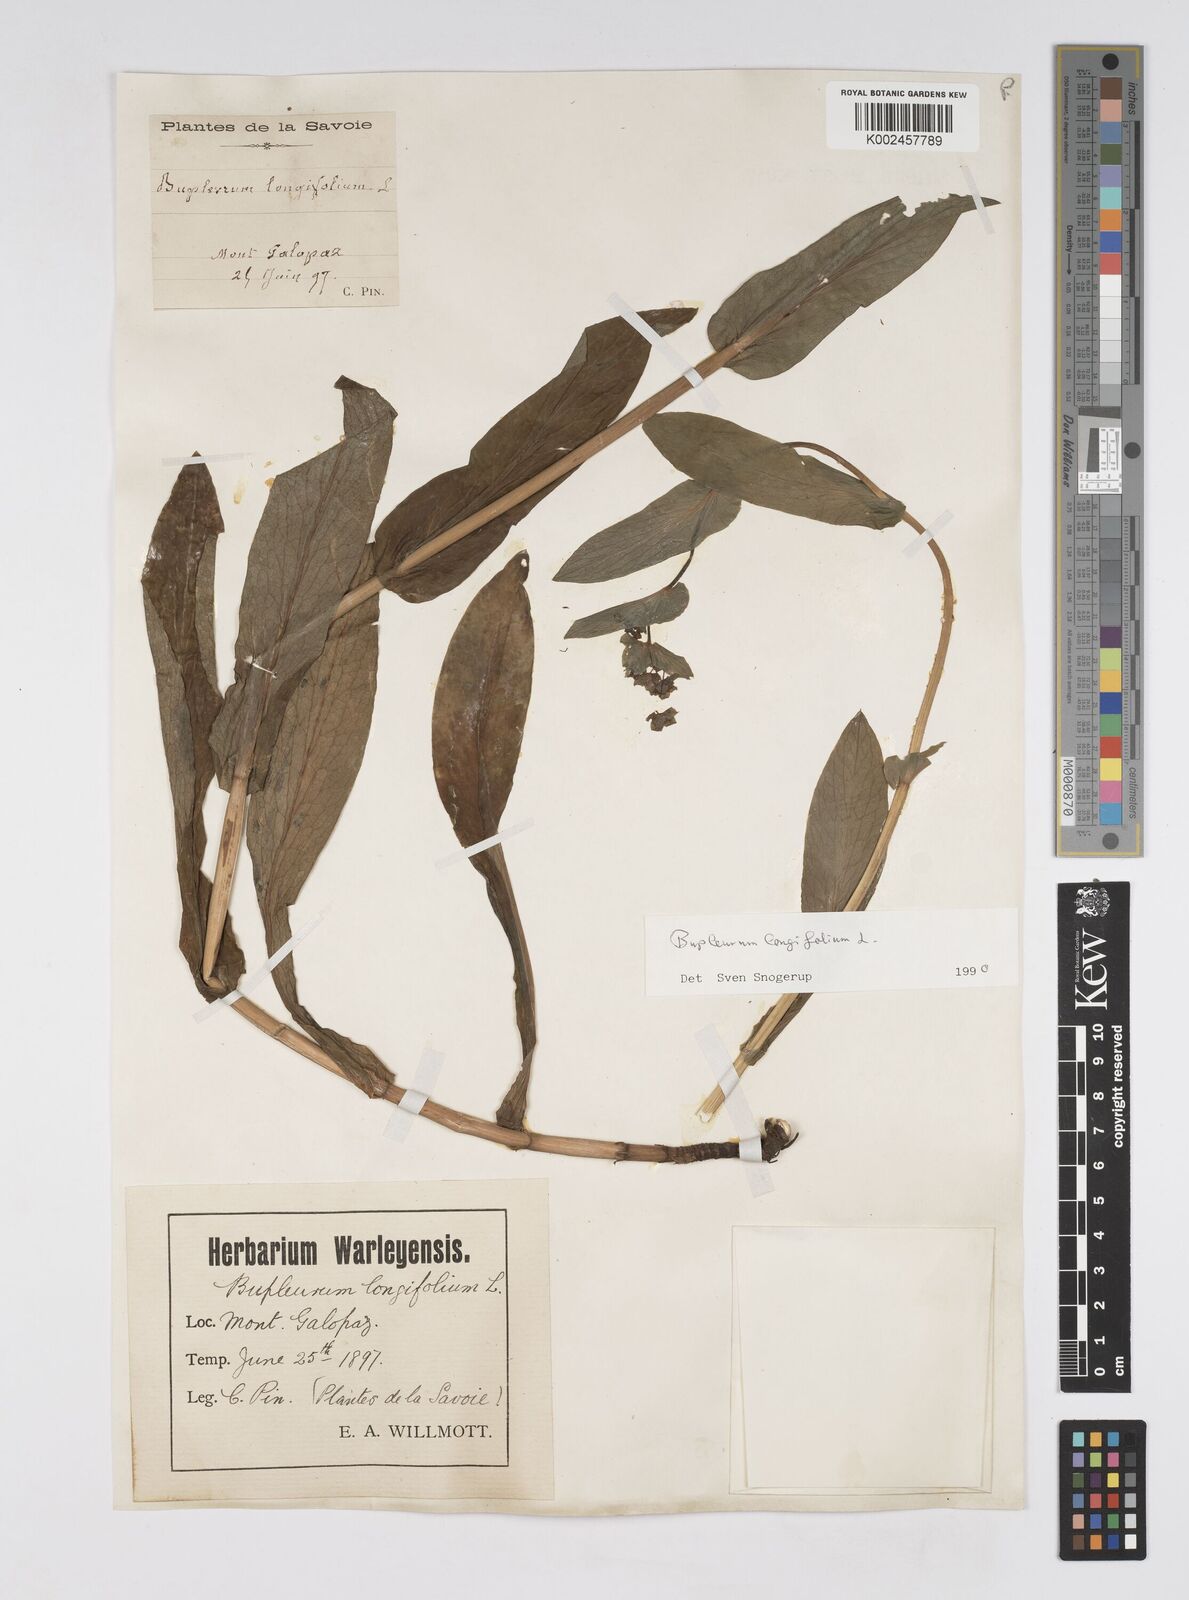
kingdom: Plantae
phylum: Tracheophyta
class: Magnoliopsida
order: Apiales
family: Apiaceae
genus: Bupleurum
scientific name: Bupleurum longifolium
